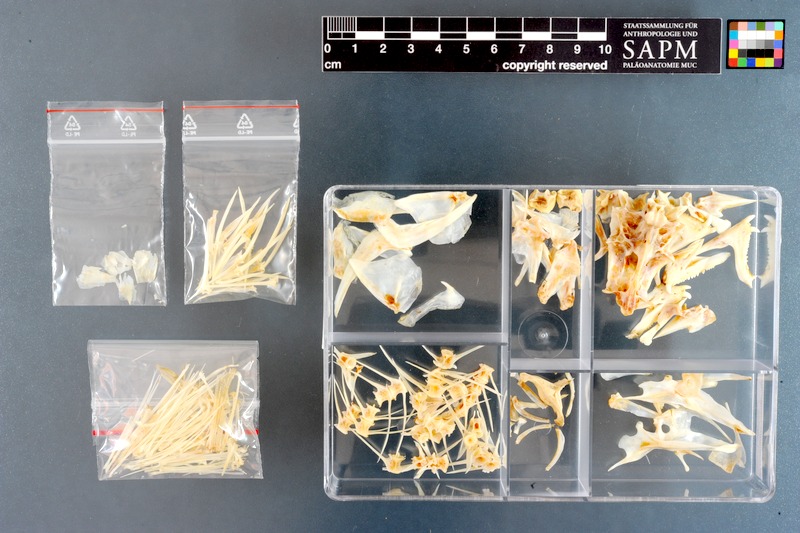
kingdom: Animalia
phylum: Chordata
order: Perciformes
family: Labridae
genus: Bodianus
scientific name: Bodianus bilunulatus
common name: Tarry hogfish
